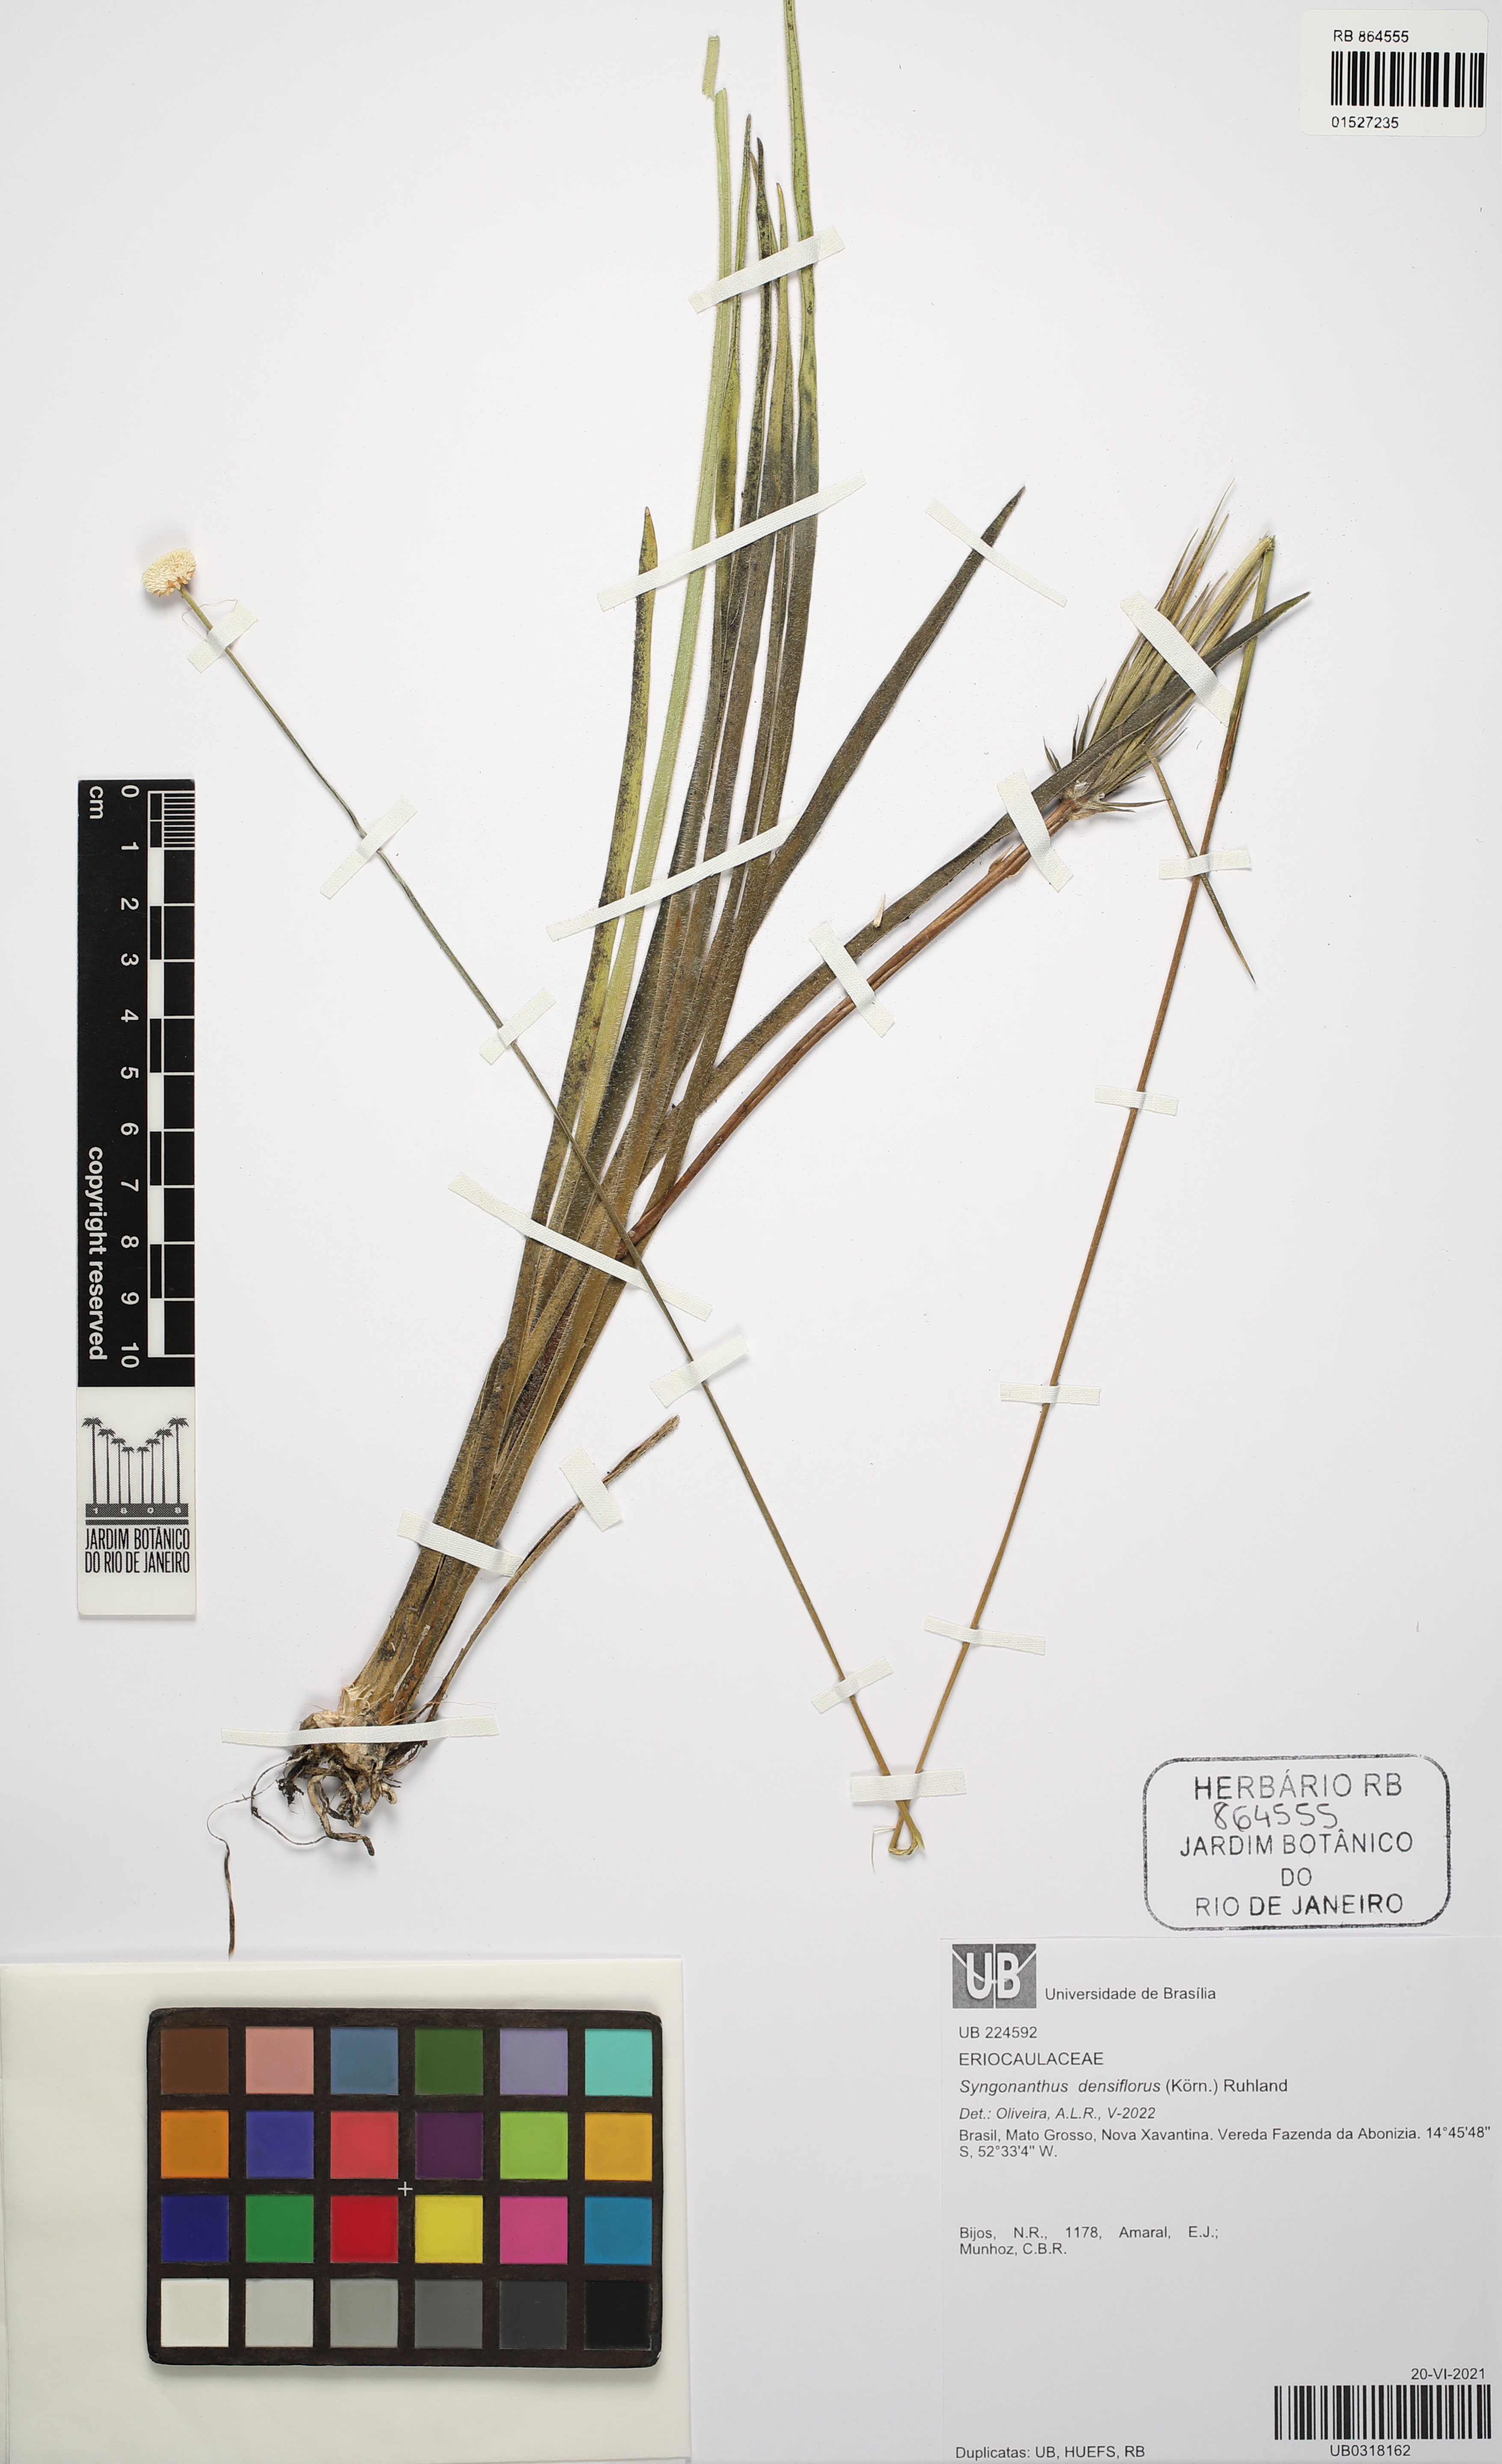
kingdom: Plantae
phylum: Tracheophyta
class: Liliopsida
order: Poales
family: Eriocaulaceae
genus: Syngonanthus
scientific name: Syngonanthus densiflorus
